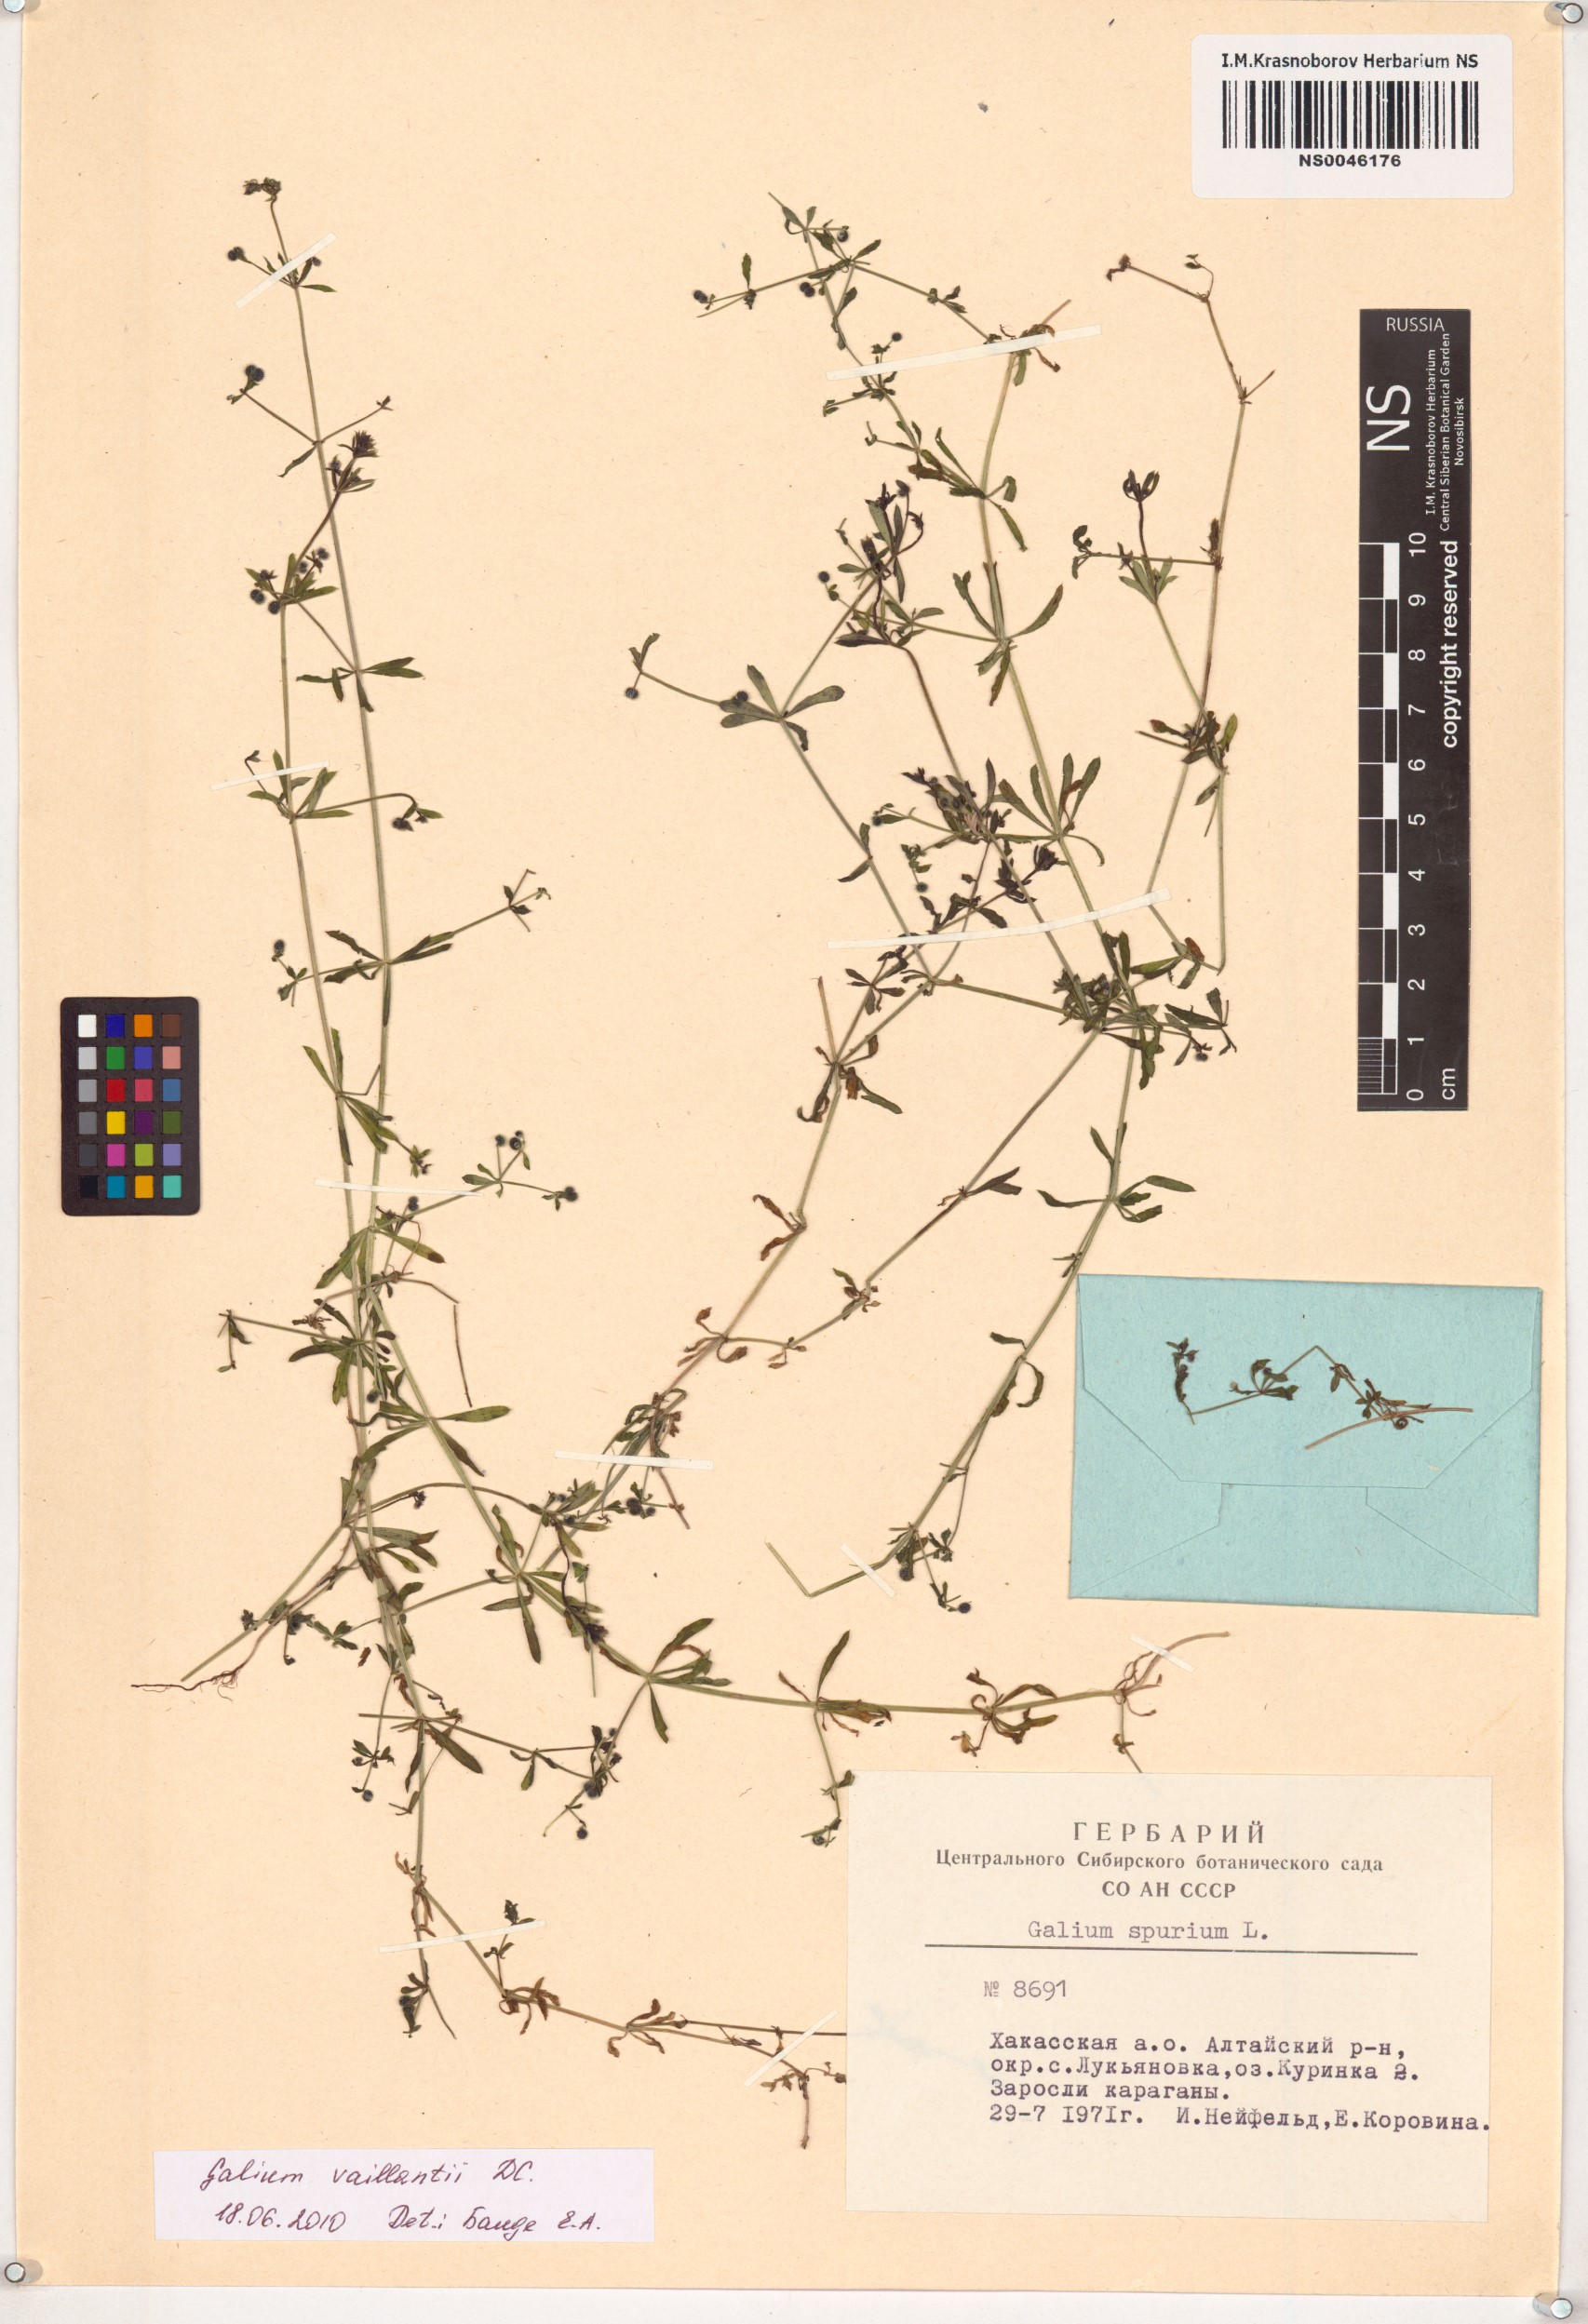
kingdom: Plantae
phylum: Tracheophyta
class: Magnoliopsida
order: Gentianales
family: Rubiaceae
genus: Galium
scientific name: Galium spurium
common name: False cleavers
